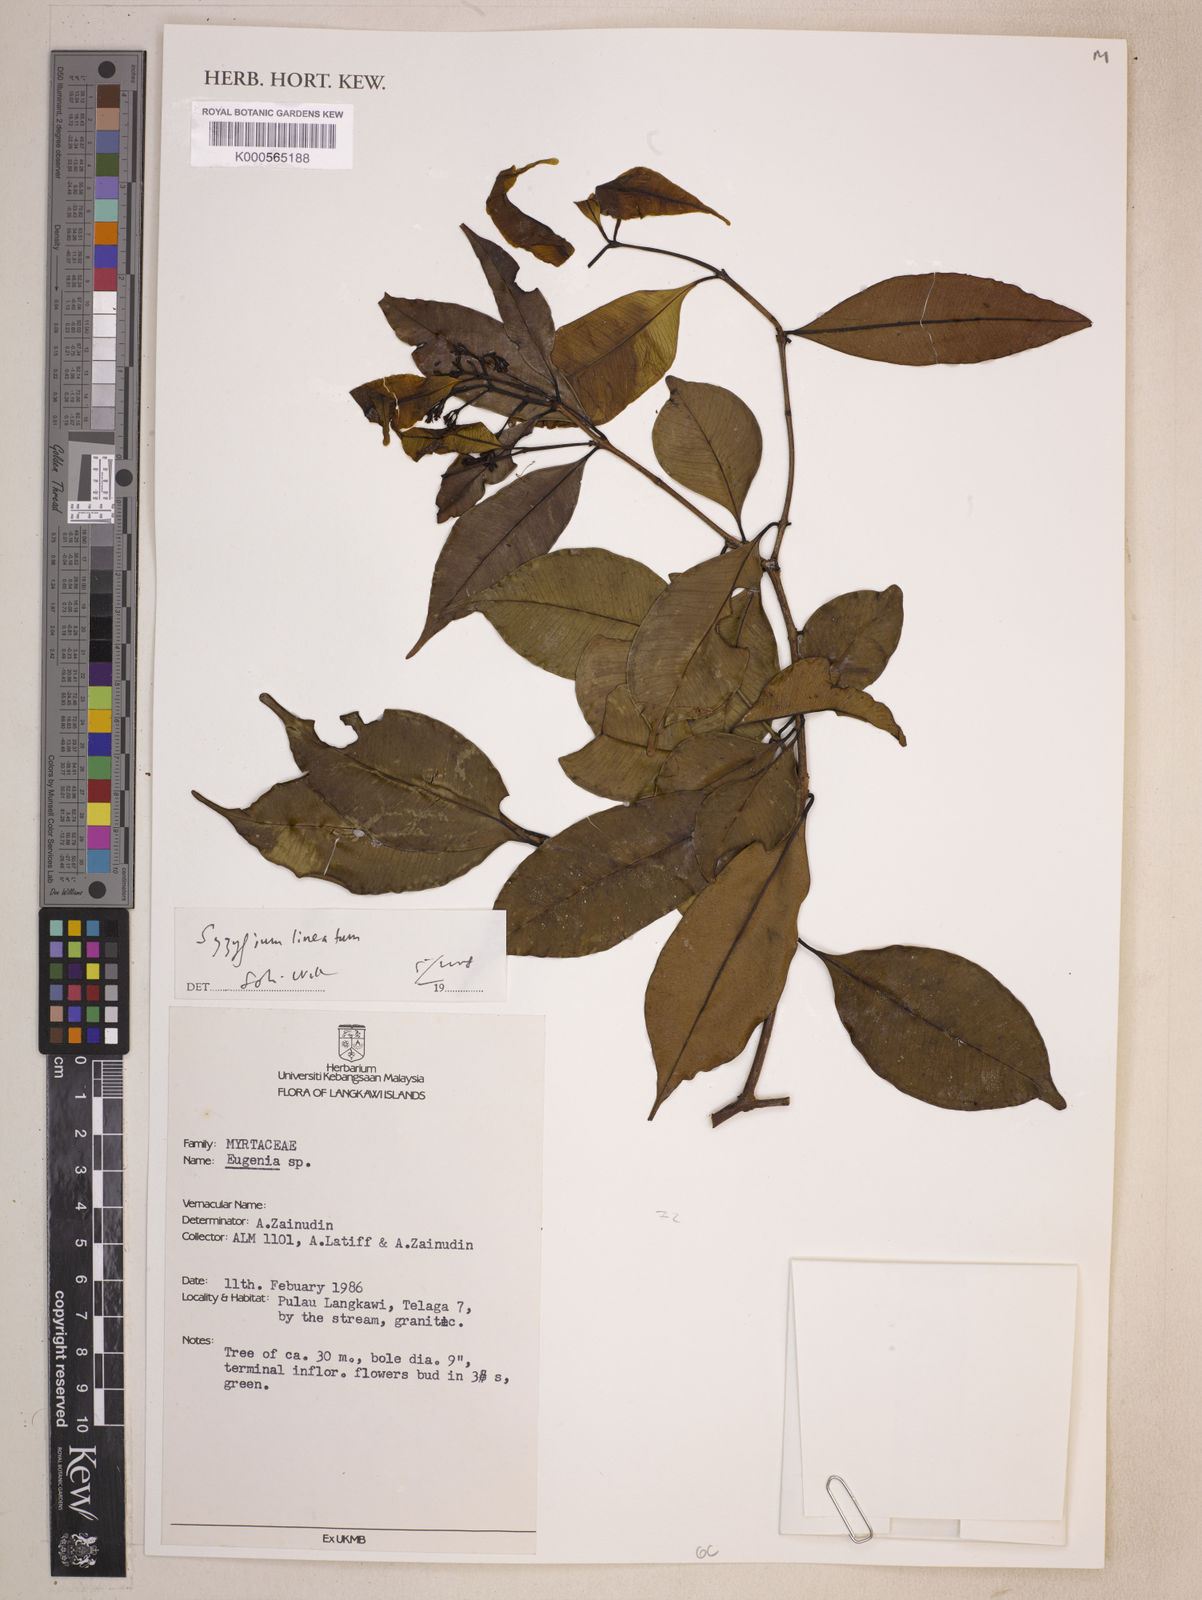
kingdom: Plantae
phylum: Tracheophyta
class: Magnoliopsida
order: Myrtales
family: Myrtaceae
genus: Syzygium
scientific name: Syzygium lineatum
